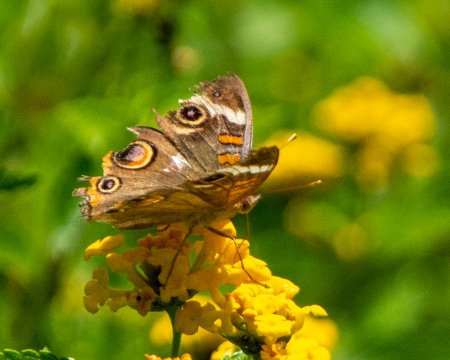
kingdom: Animalia
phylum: Arthropoda
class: Insecta
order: Lepidoptera
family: Nymphalidae
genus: Junonia
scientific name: Junonia coenia
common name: Common Buckeye
